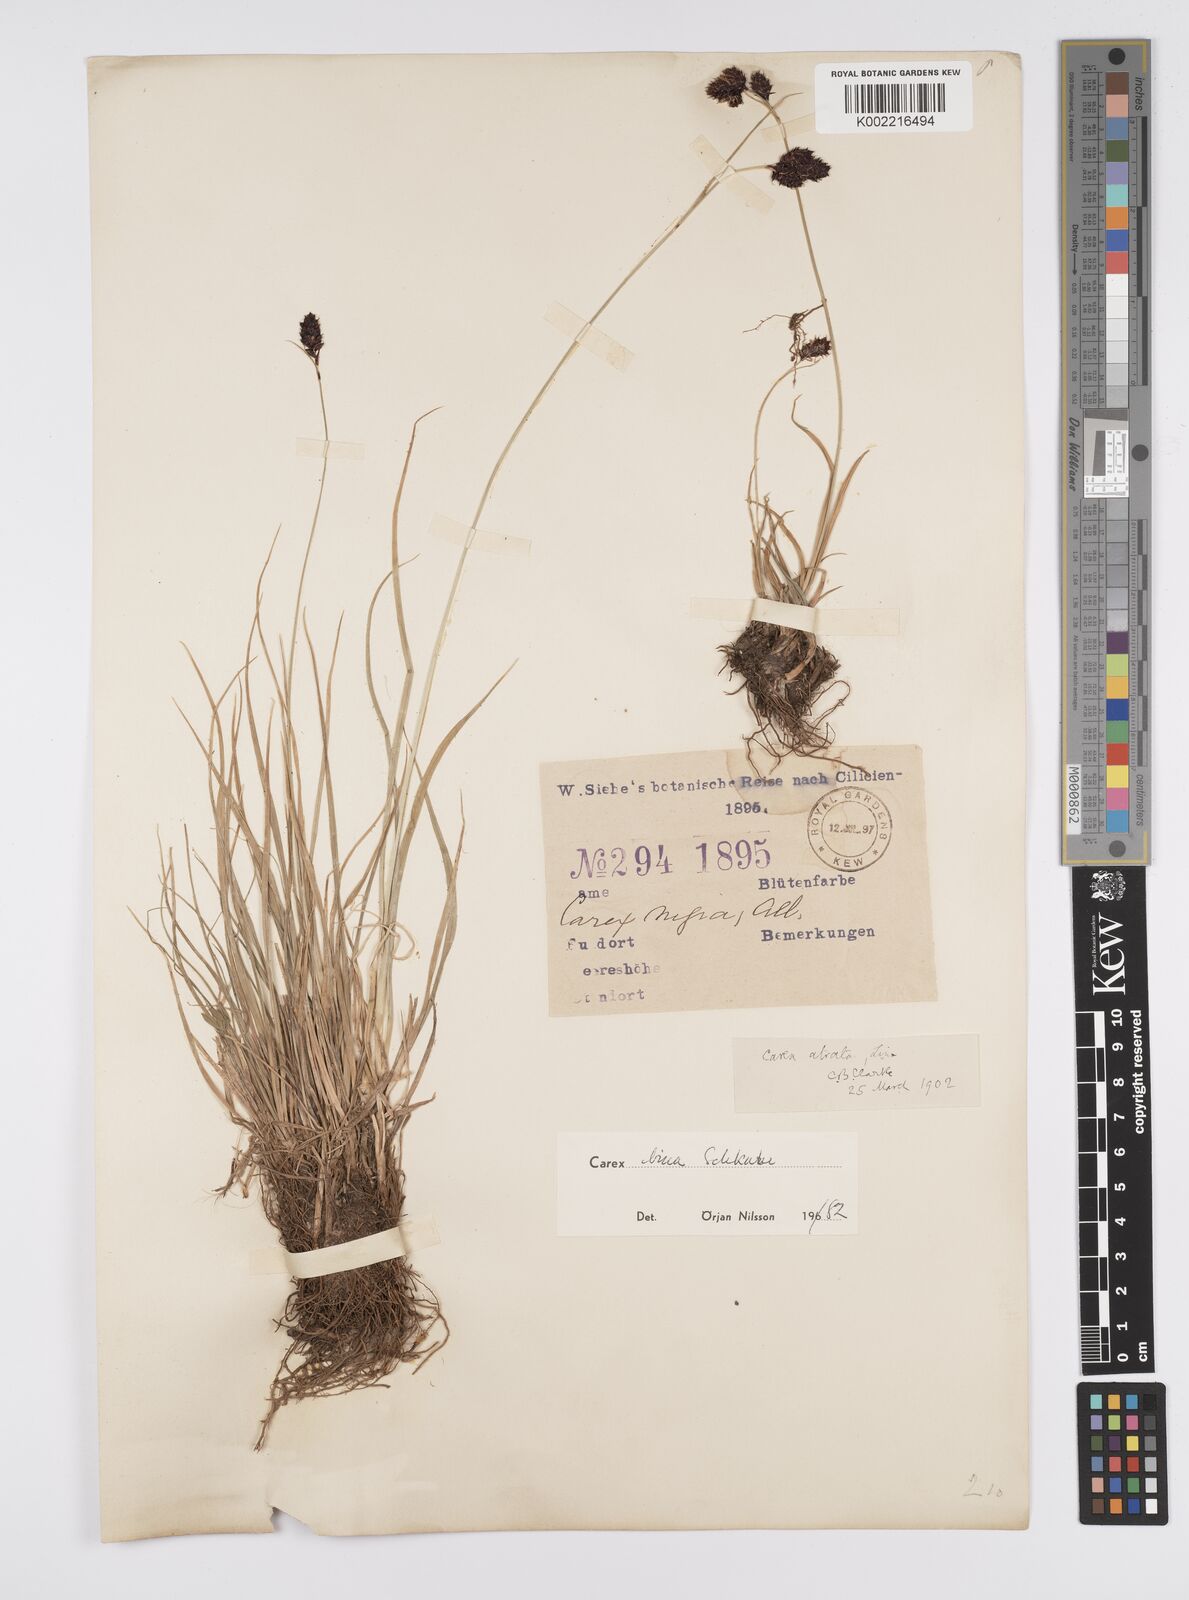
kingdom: Plantae
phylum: Tracheophyta
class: Liliopsida
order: Poales
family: Cyperaceae
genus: Carex
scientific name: Carex parviflora
